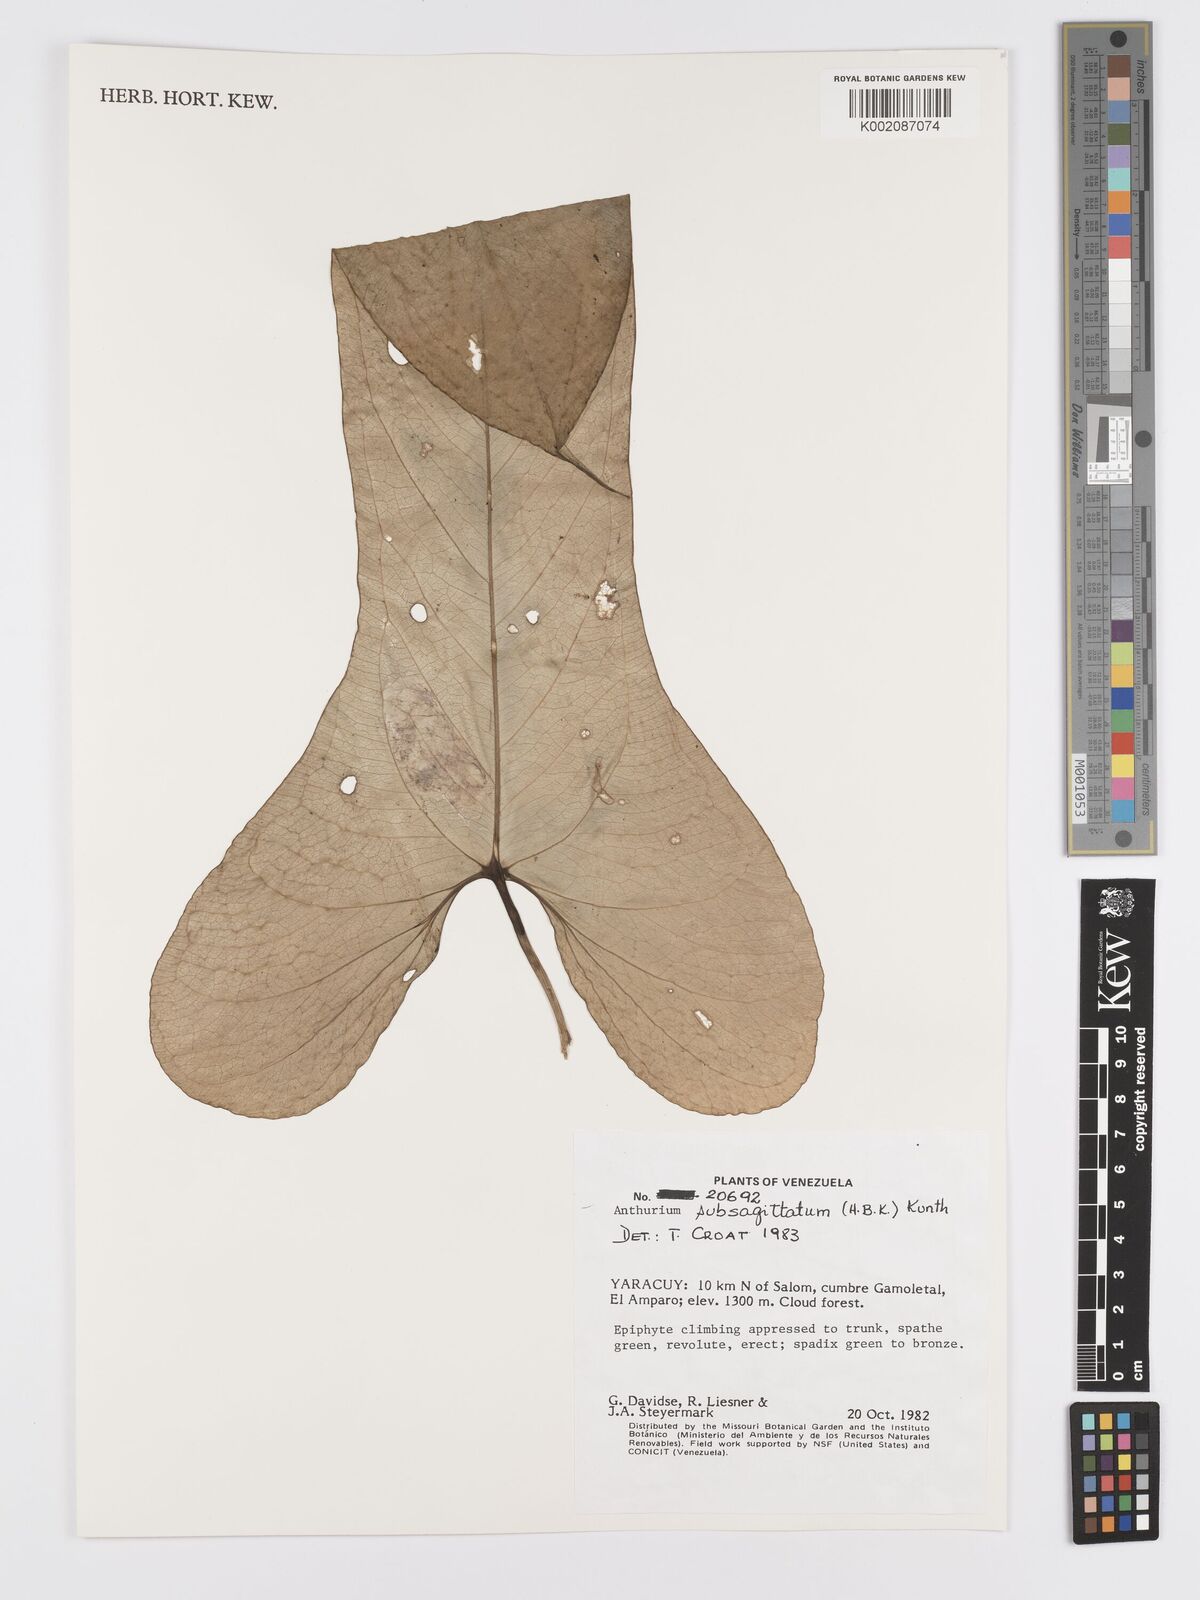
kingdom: Plantae
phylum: Tracheophyta
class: Liliopsida
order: Alismatales
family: Araceae
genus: Anthurium
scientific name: Anthurium
